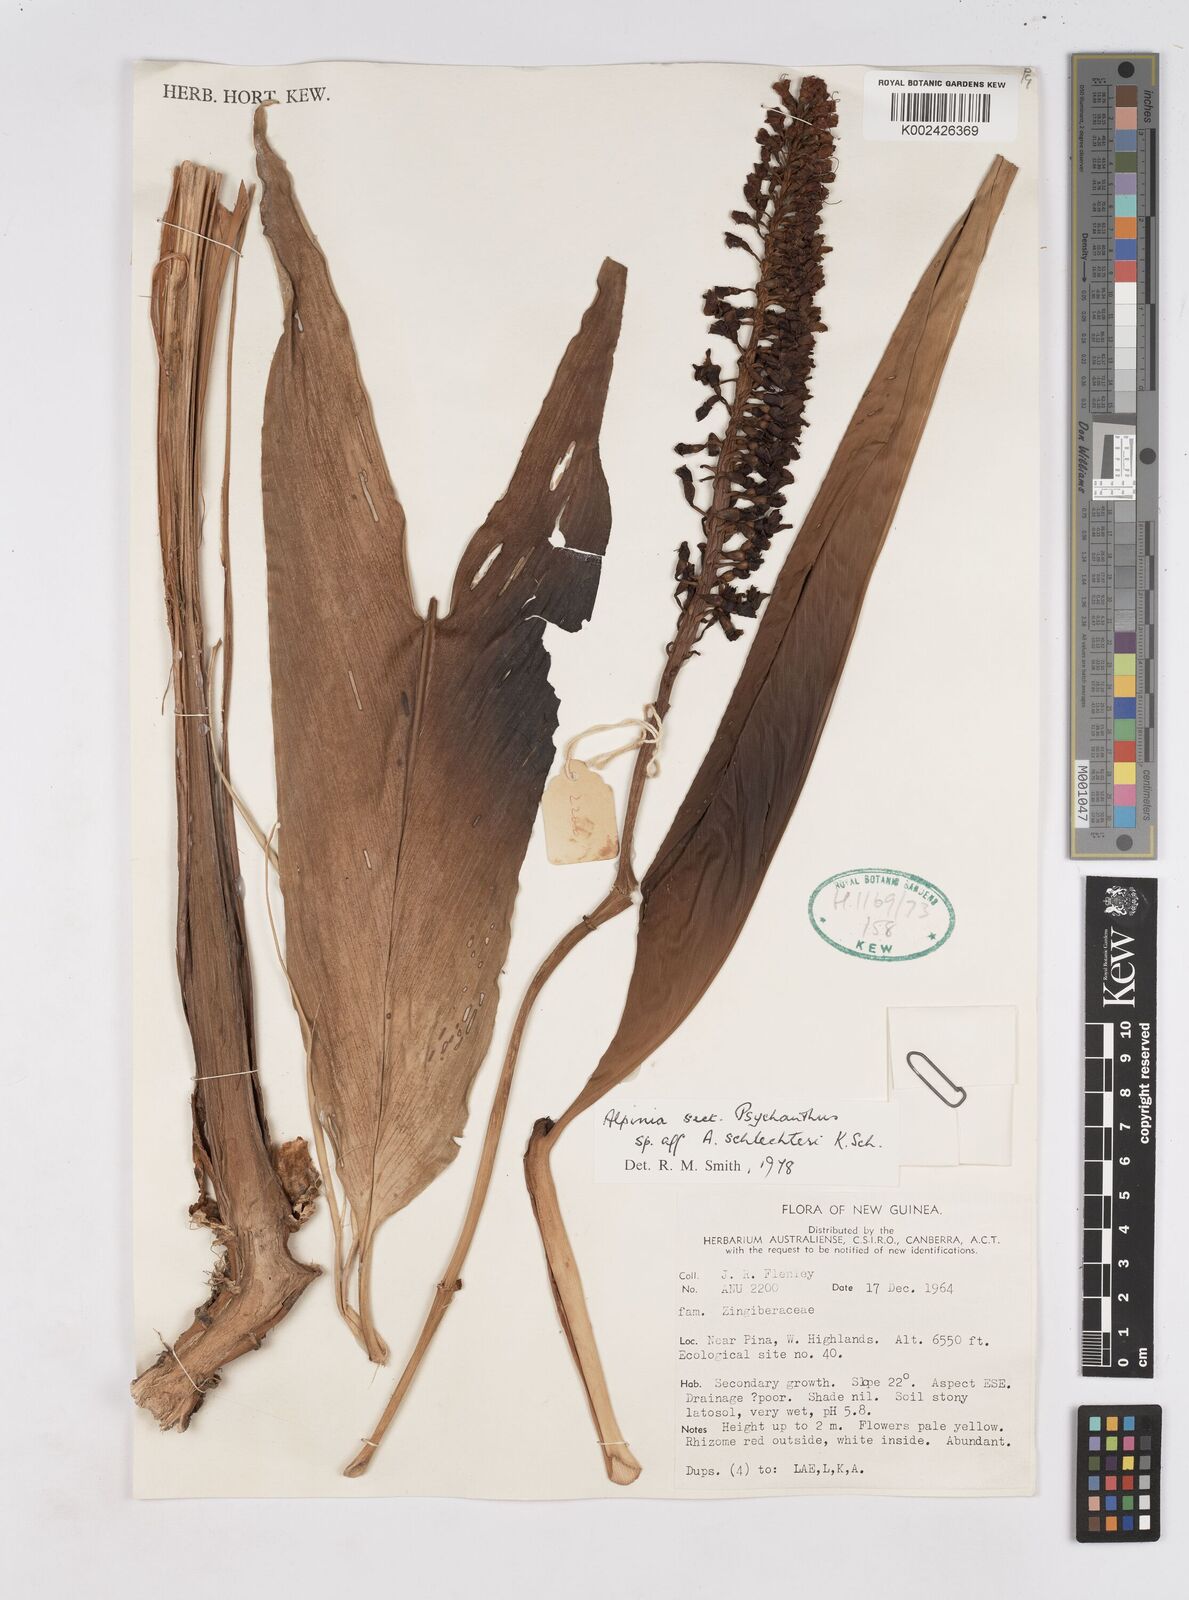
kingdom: Plantae
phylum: Tracheophyta
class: Liliopsida
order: Zingiberales
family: Zingiberaceae
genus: Pleuranthodium
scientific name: Pleuranthodium schlechteri
